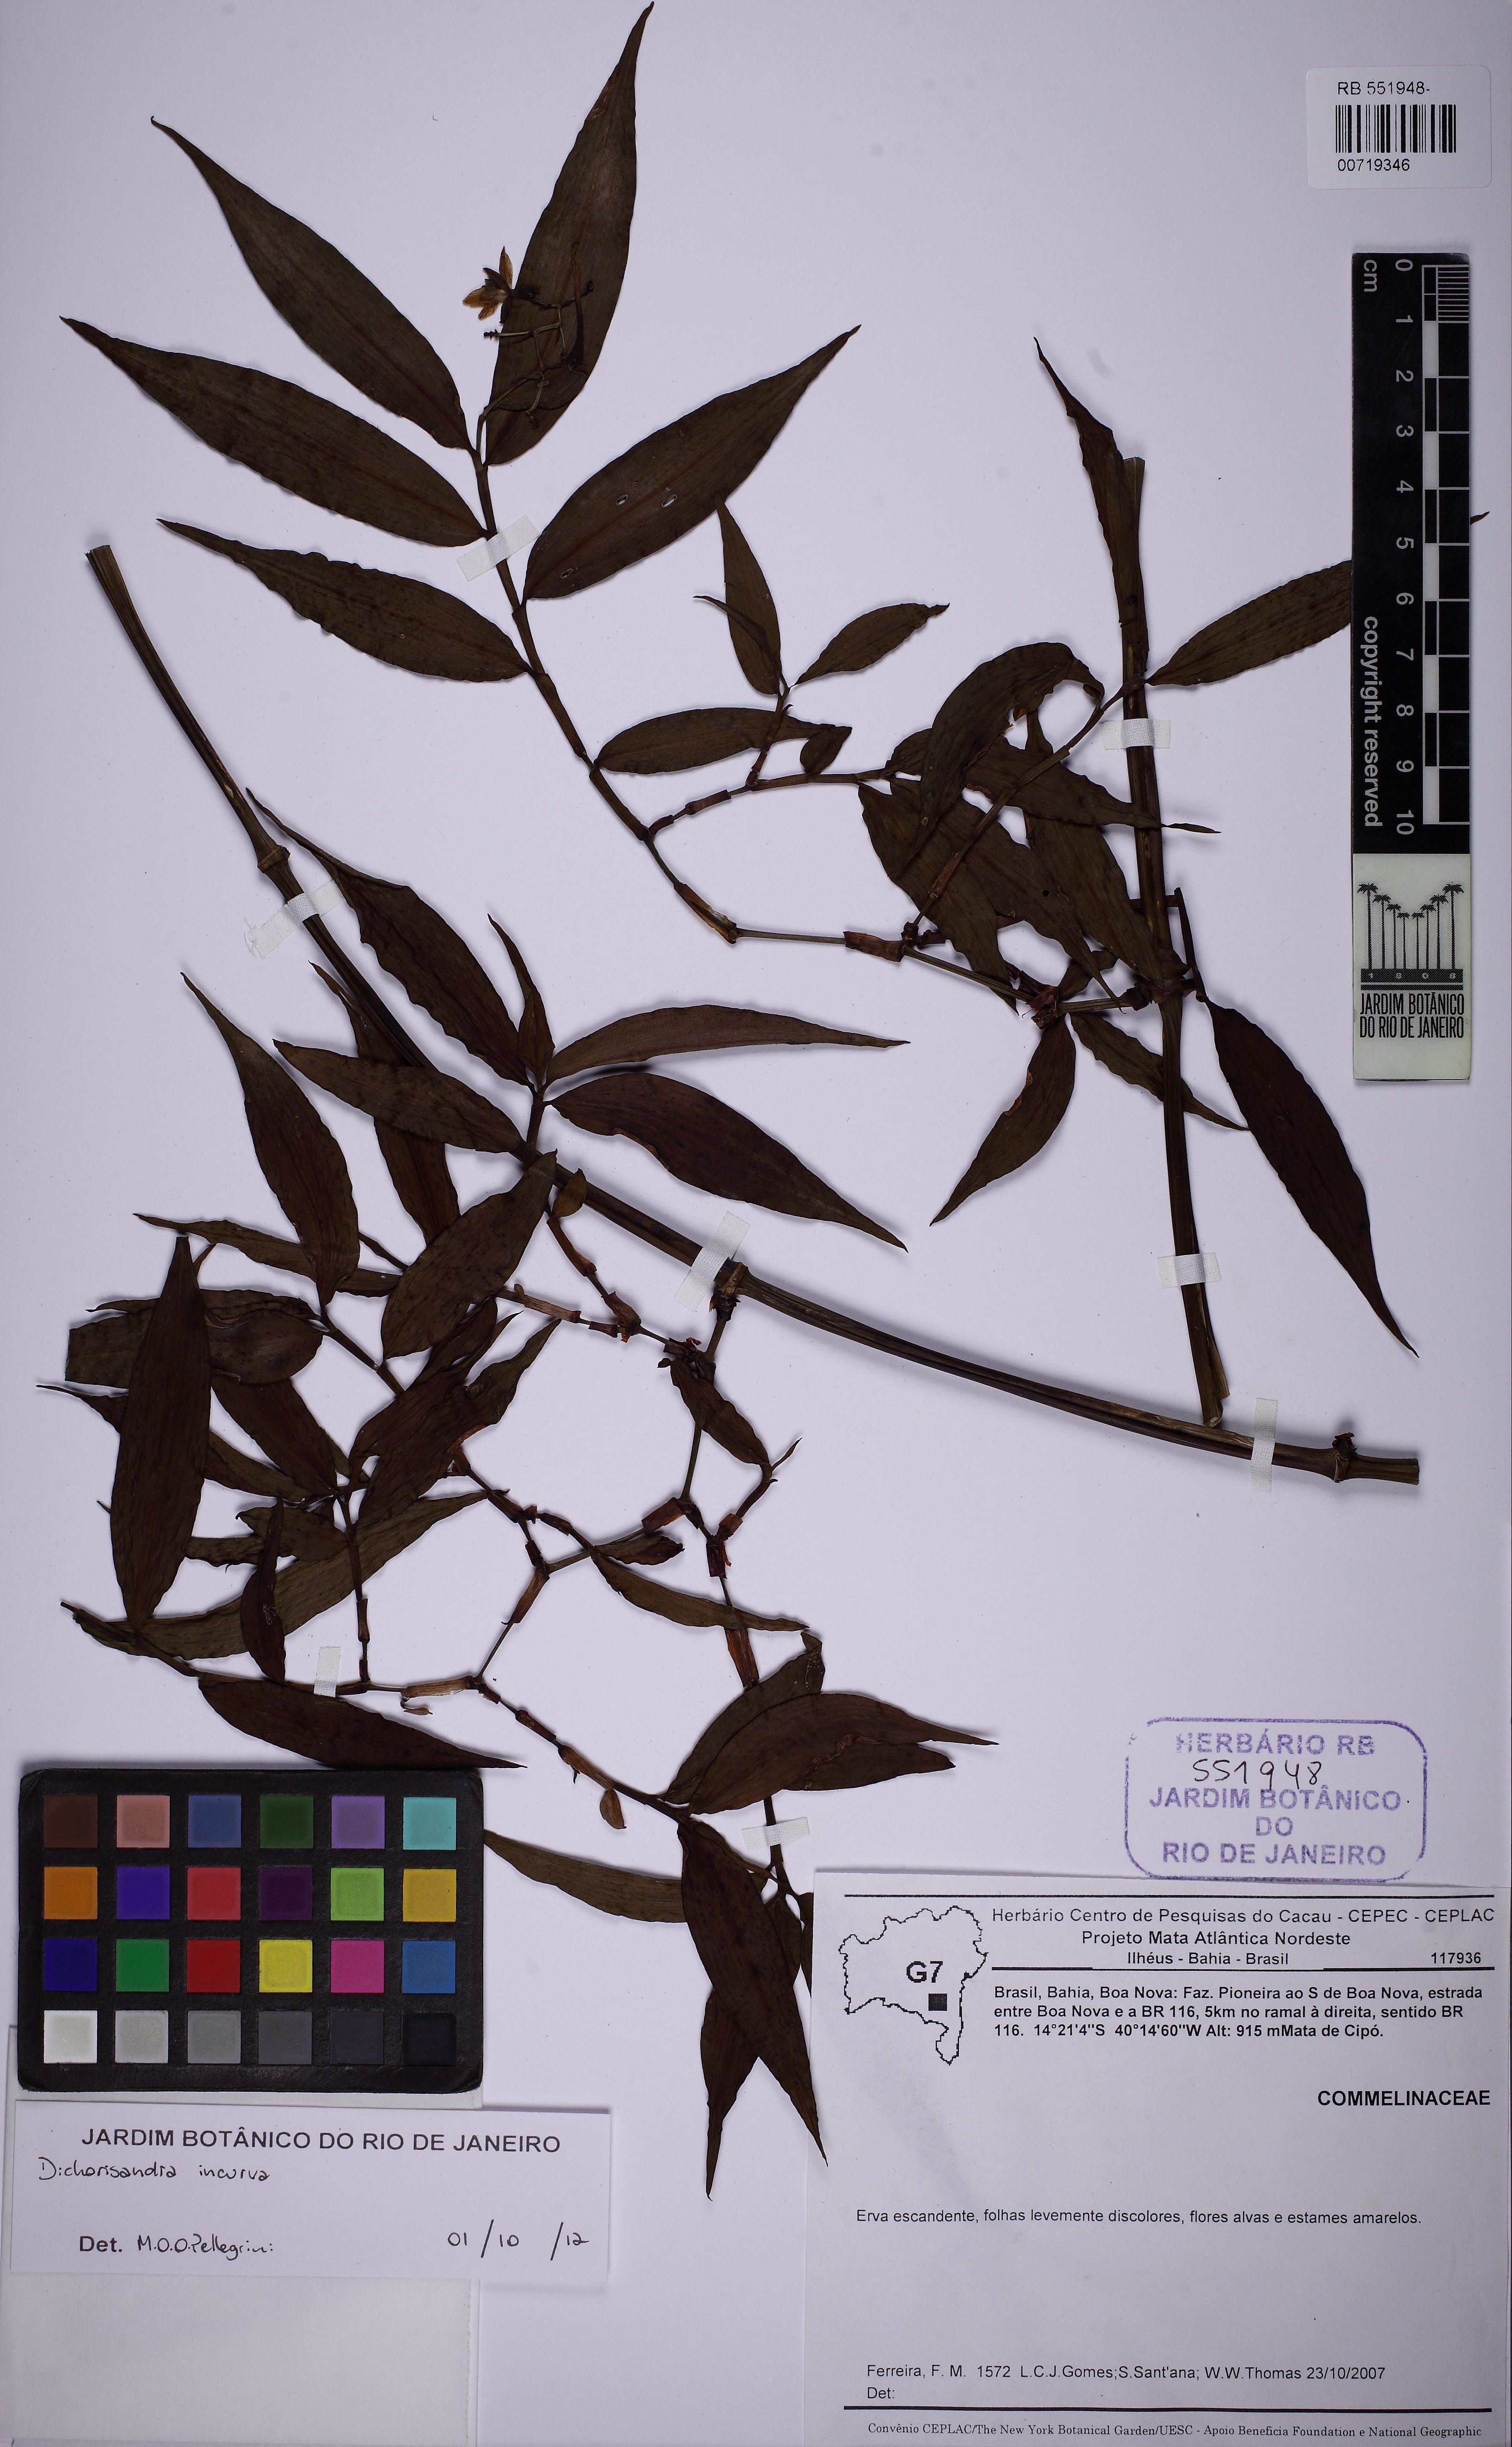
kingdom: Plantae
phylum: Tracheophyta
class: Liliopsida
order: Commelinales
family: Commelinaceae
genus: Dichorisandra
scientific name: Dichorisandra incurva
